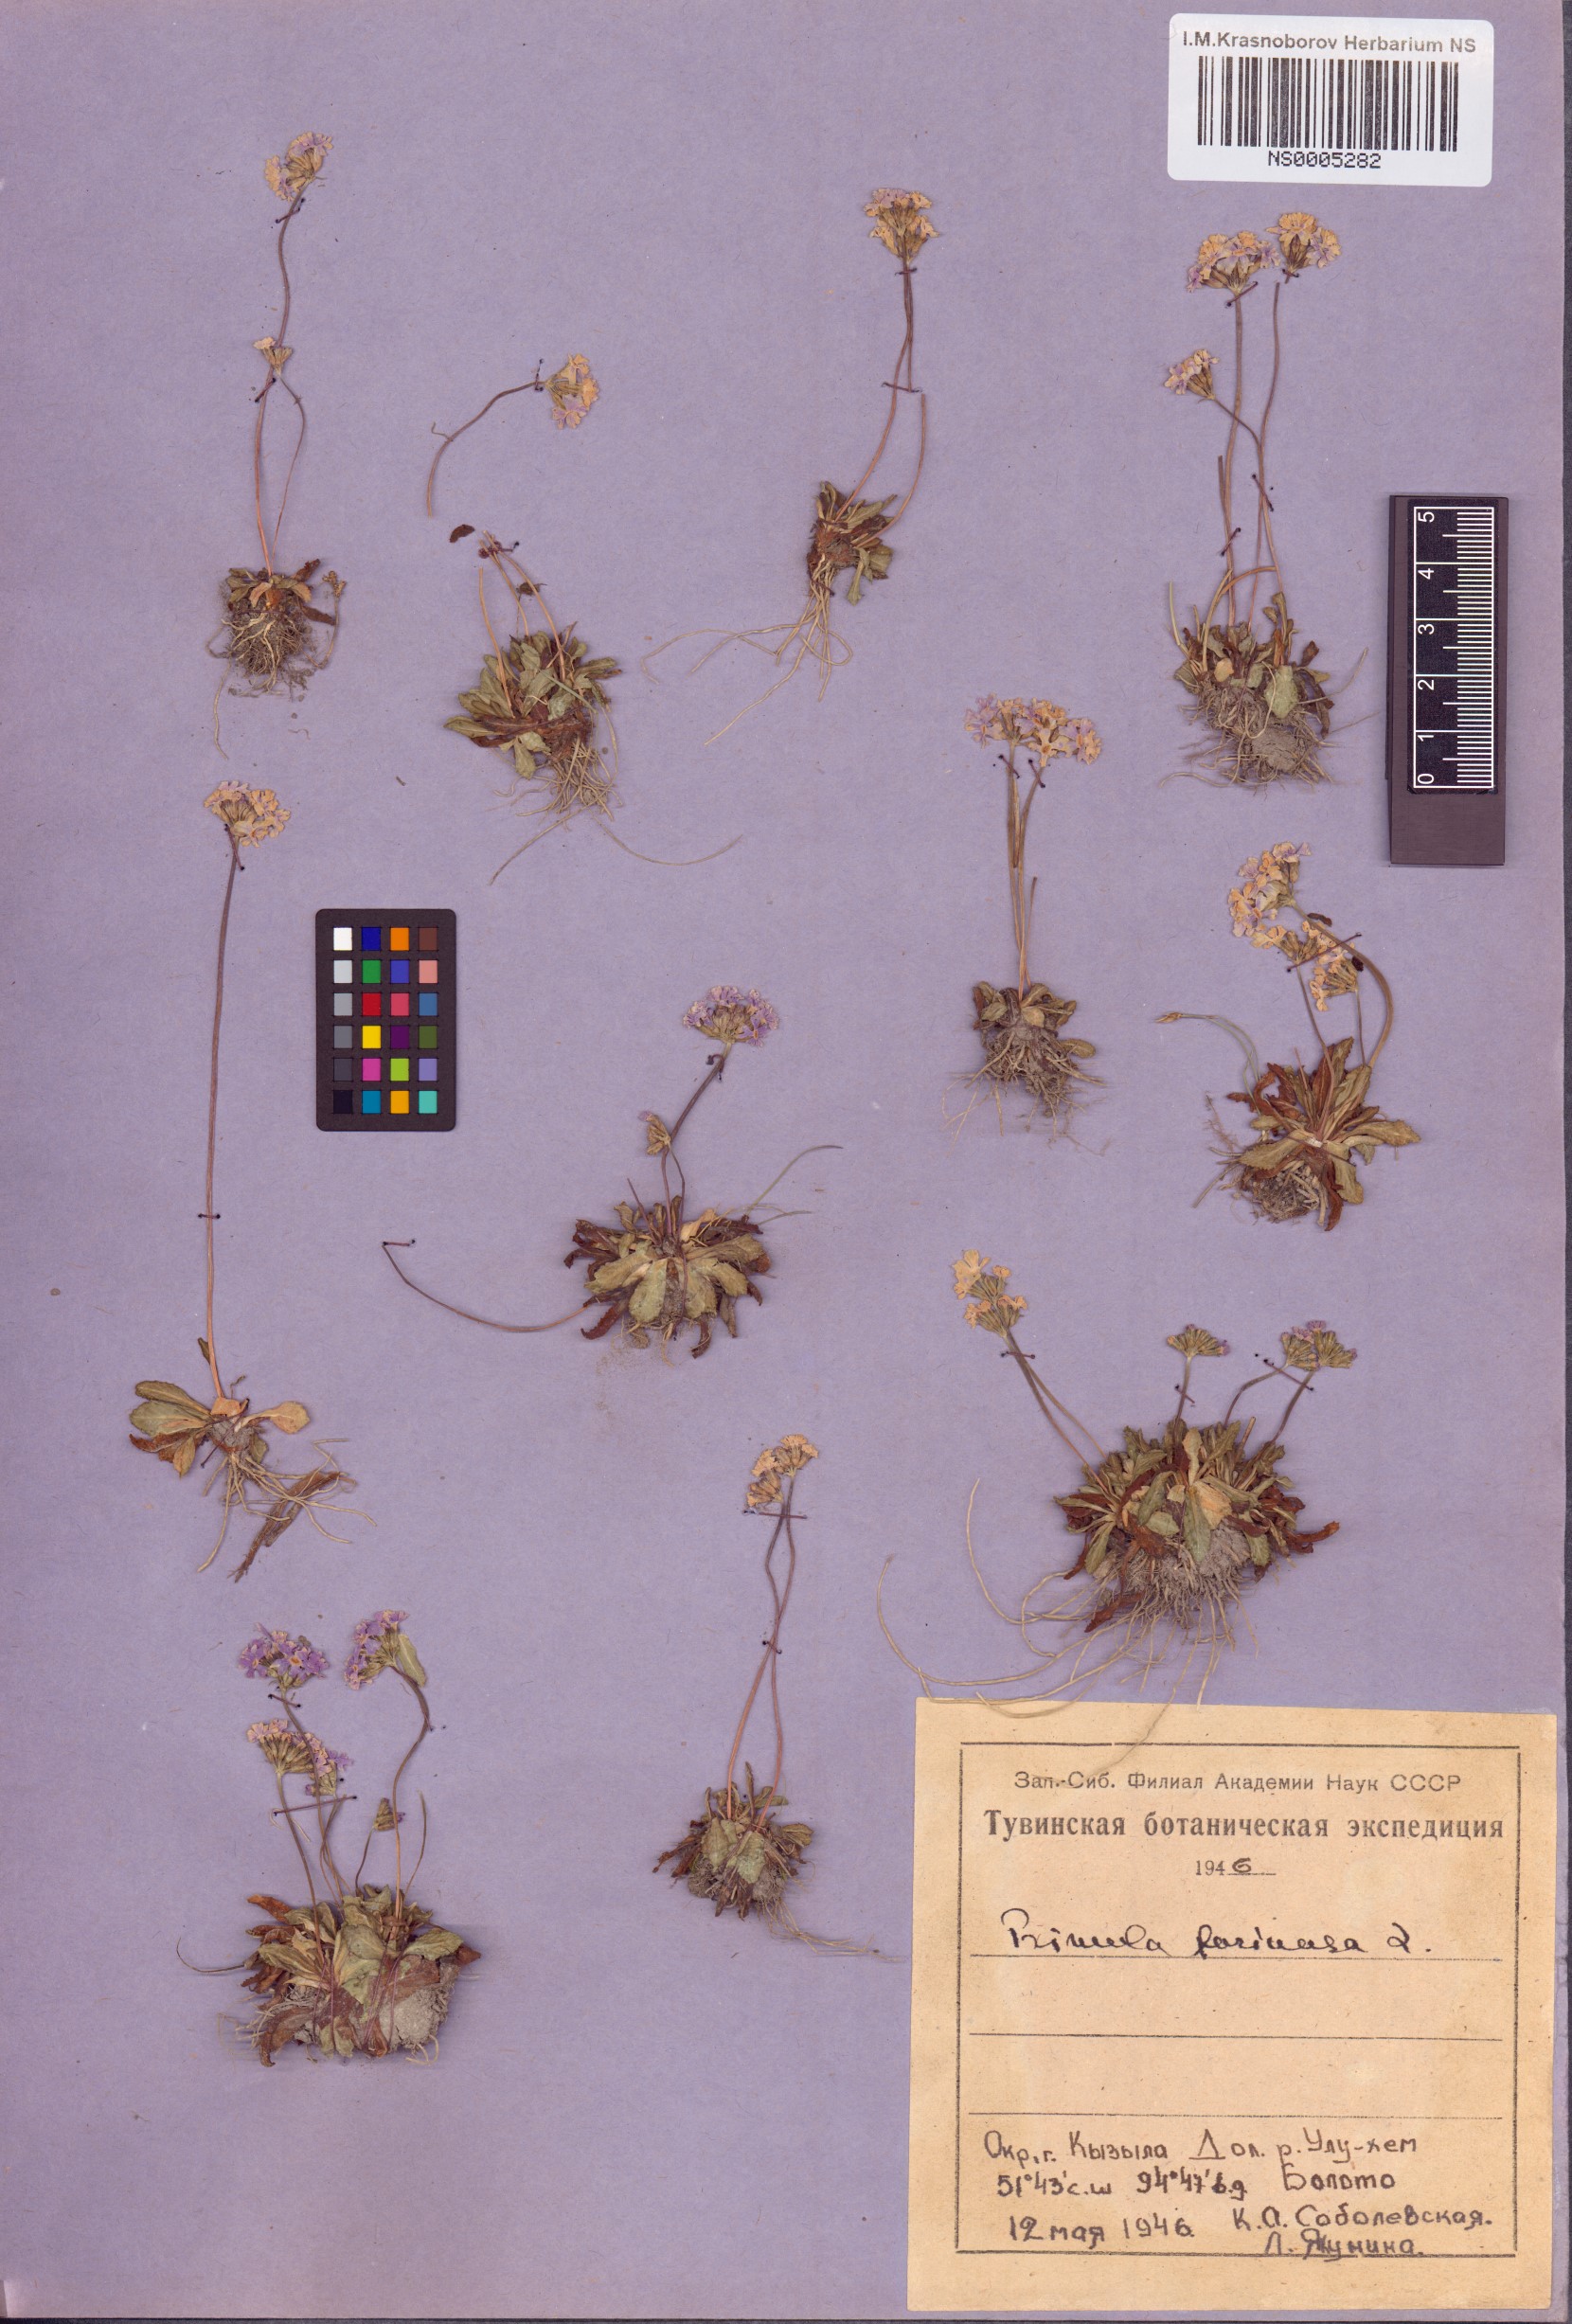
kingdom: Plantae
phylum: Tracheophyta
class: Magnoliopsida
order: Ericales
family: Primulaceae
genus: Primula
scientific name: Primula farinosa
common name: Bird's-eye primrose
